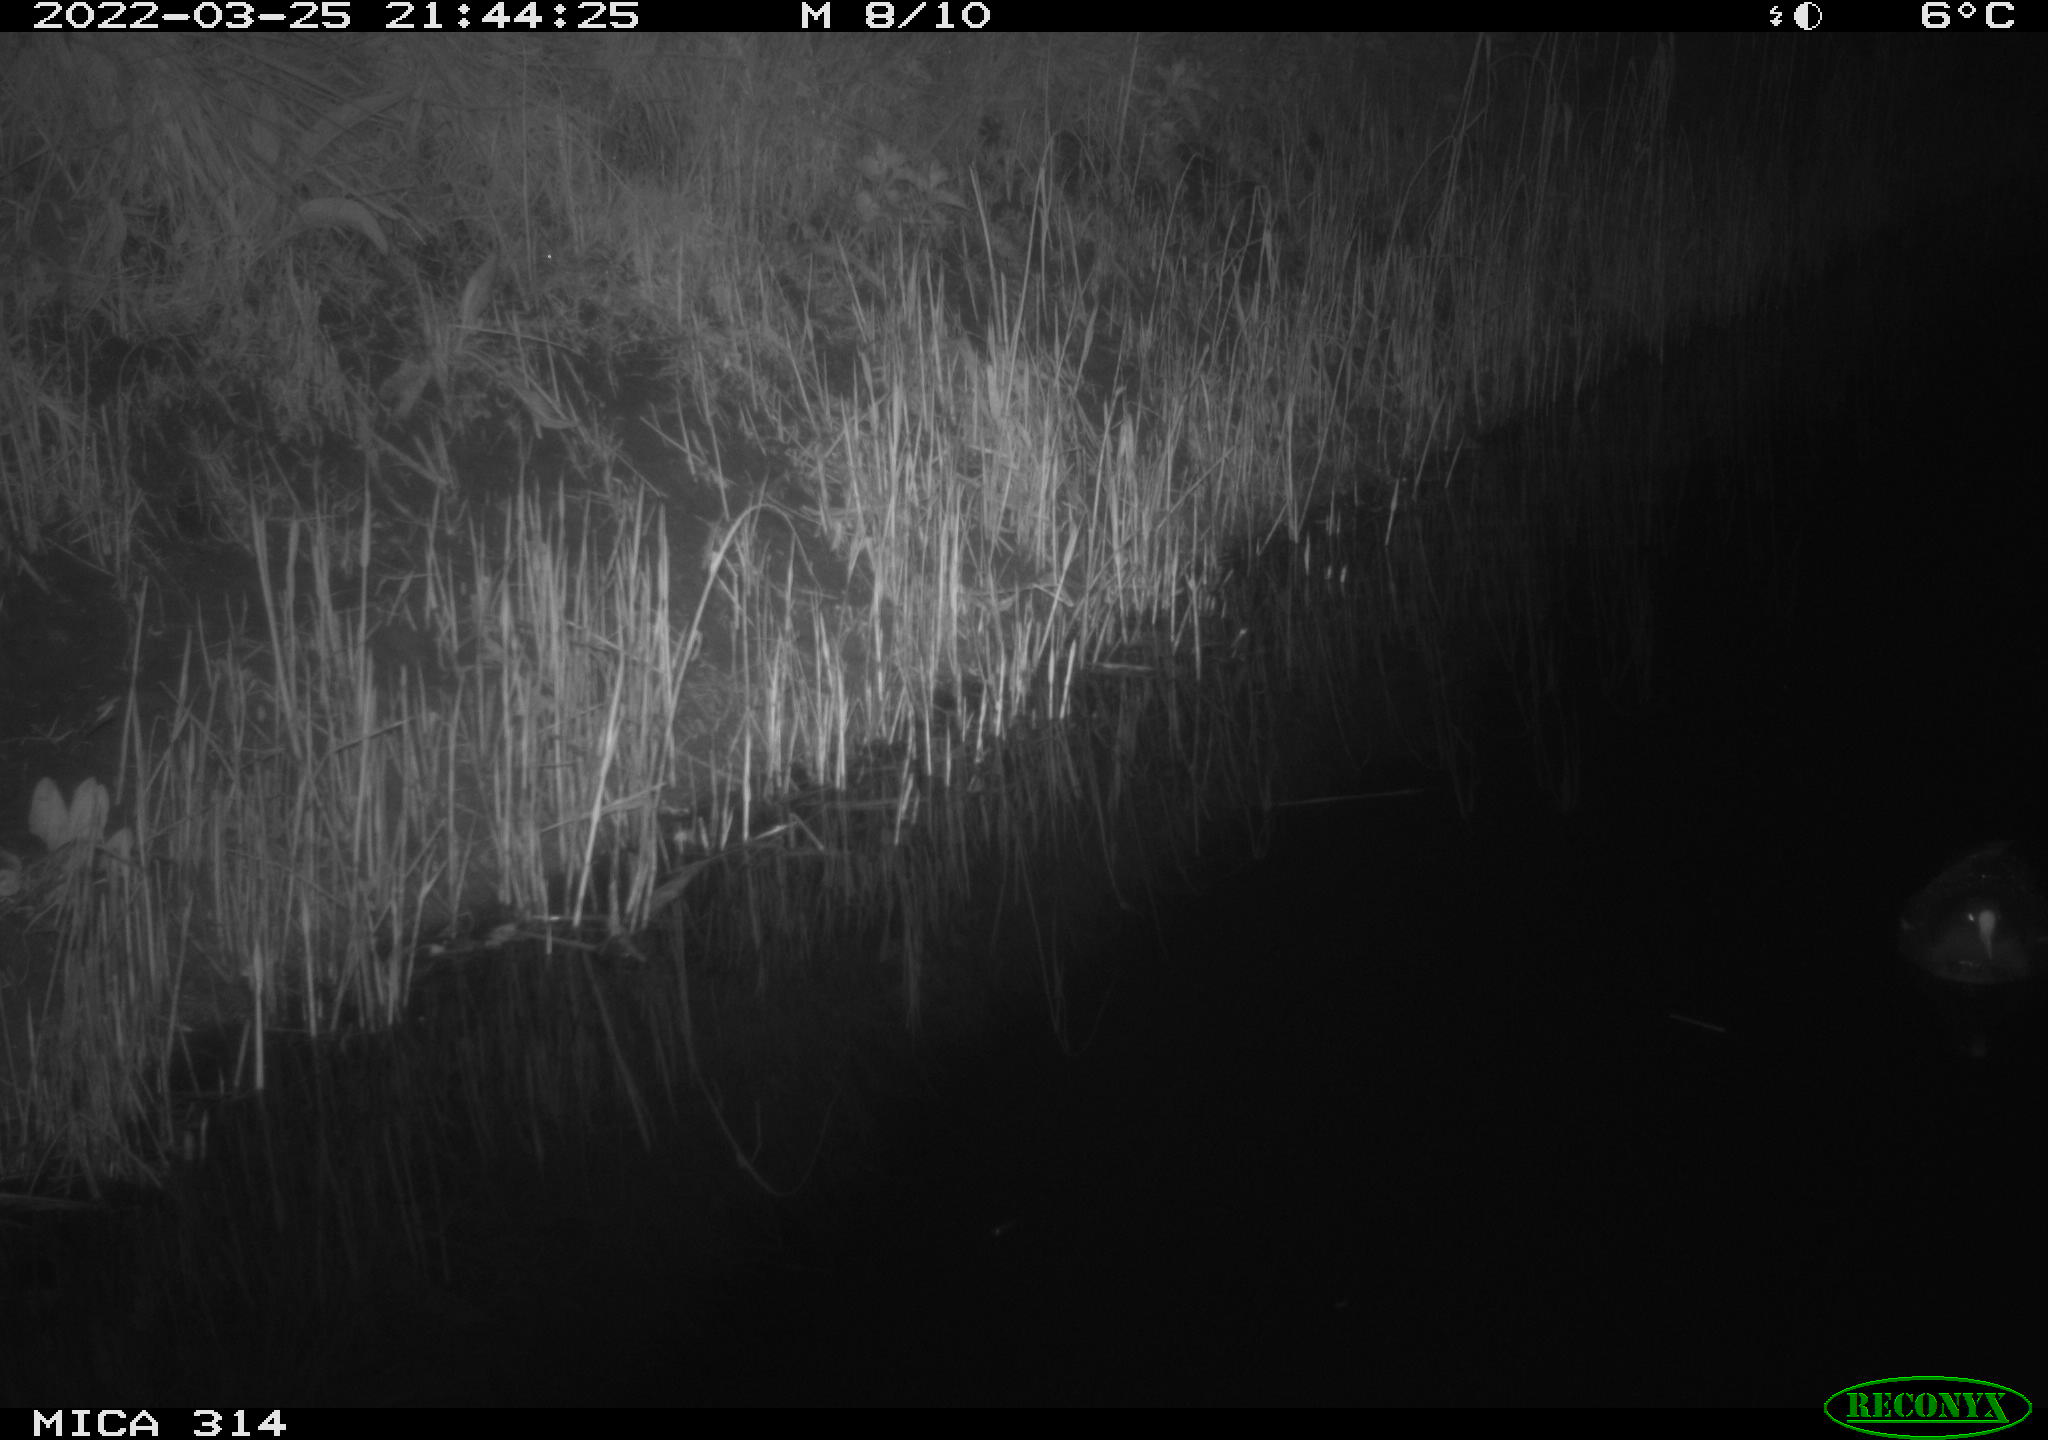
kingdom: Animalia
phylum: Chordata
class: Aves
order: Gruiformes
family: Rallidae
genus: Gallinula
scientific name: Gallinula chloropus
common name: Common moorhen
